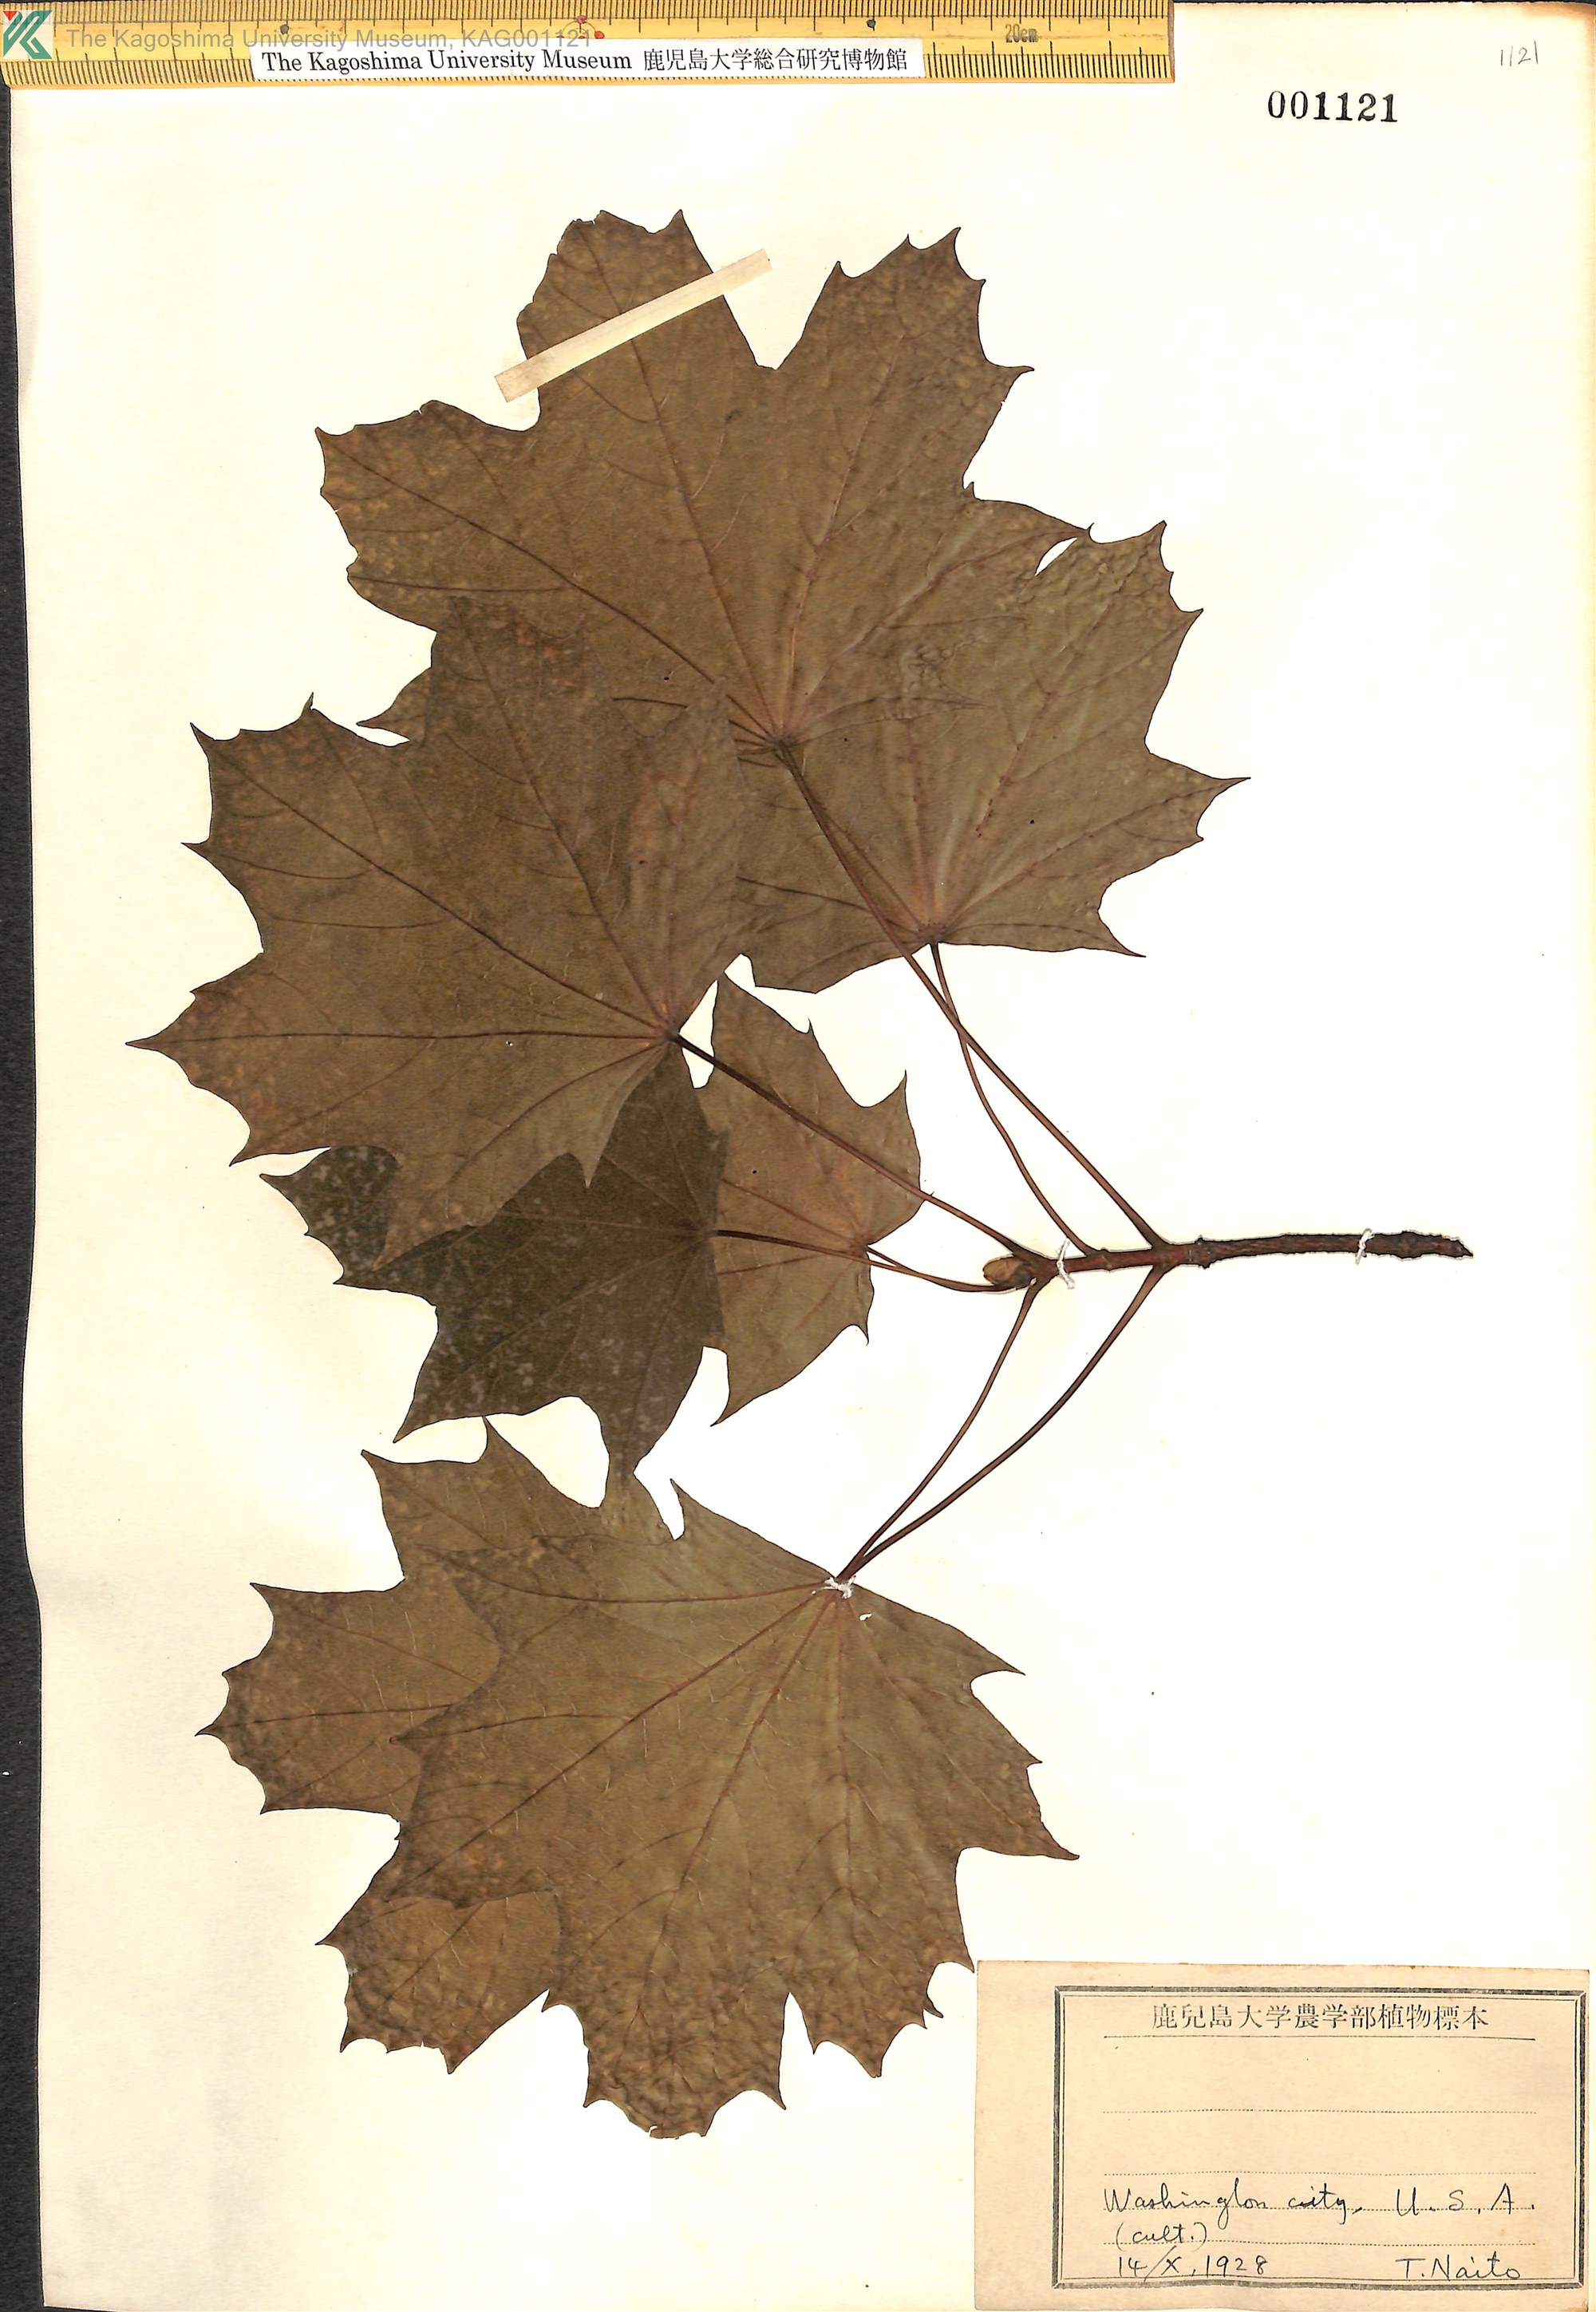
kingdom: Plantae
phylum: Tracheophyta
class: Magnoliopsida
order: Sapindales
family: Sapindaceae
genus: Acer
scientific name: Acer
